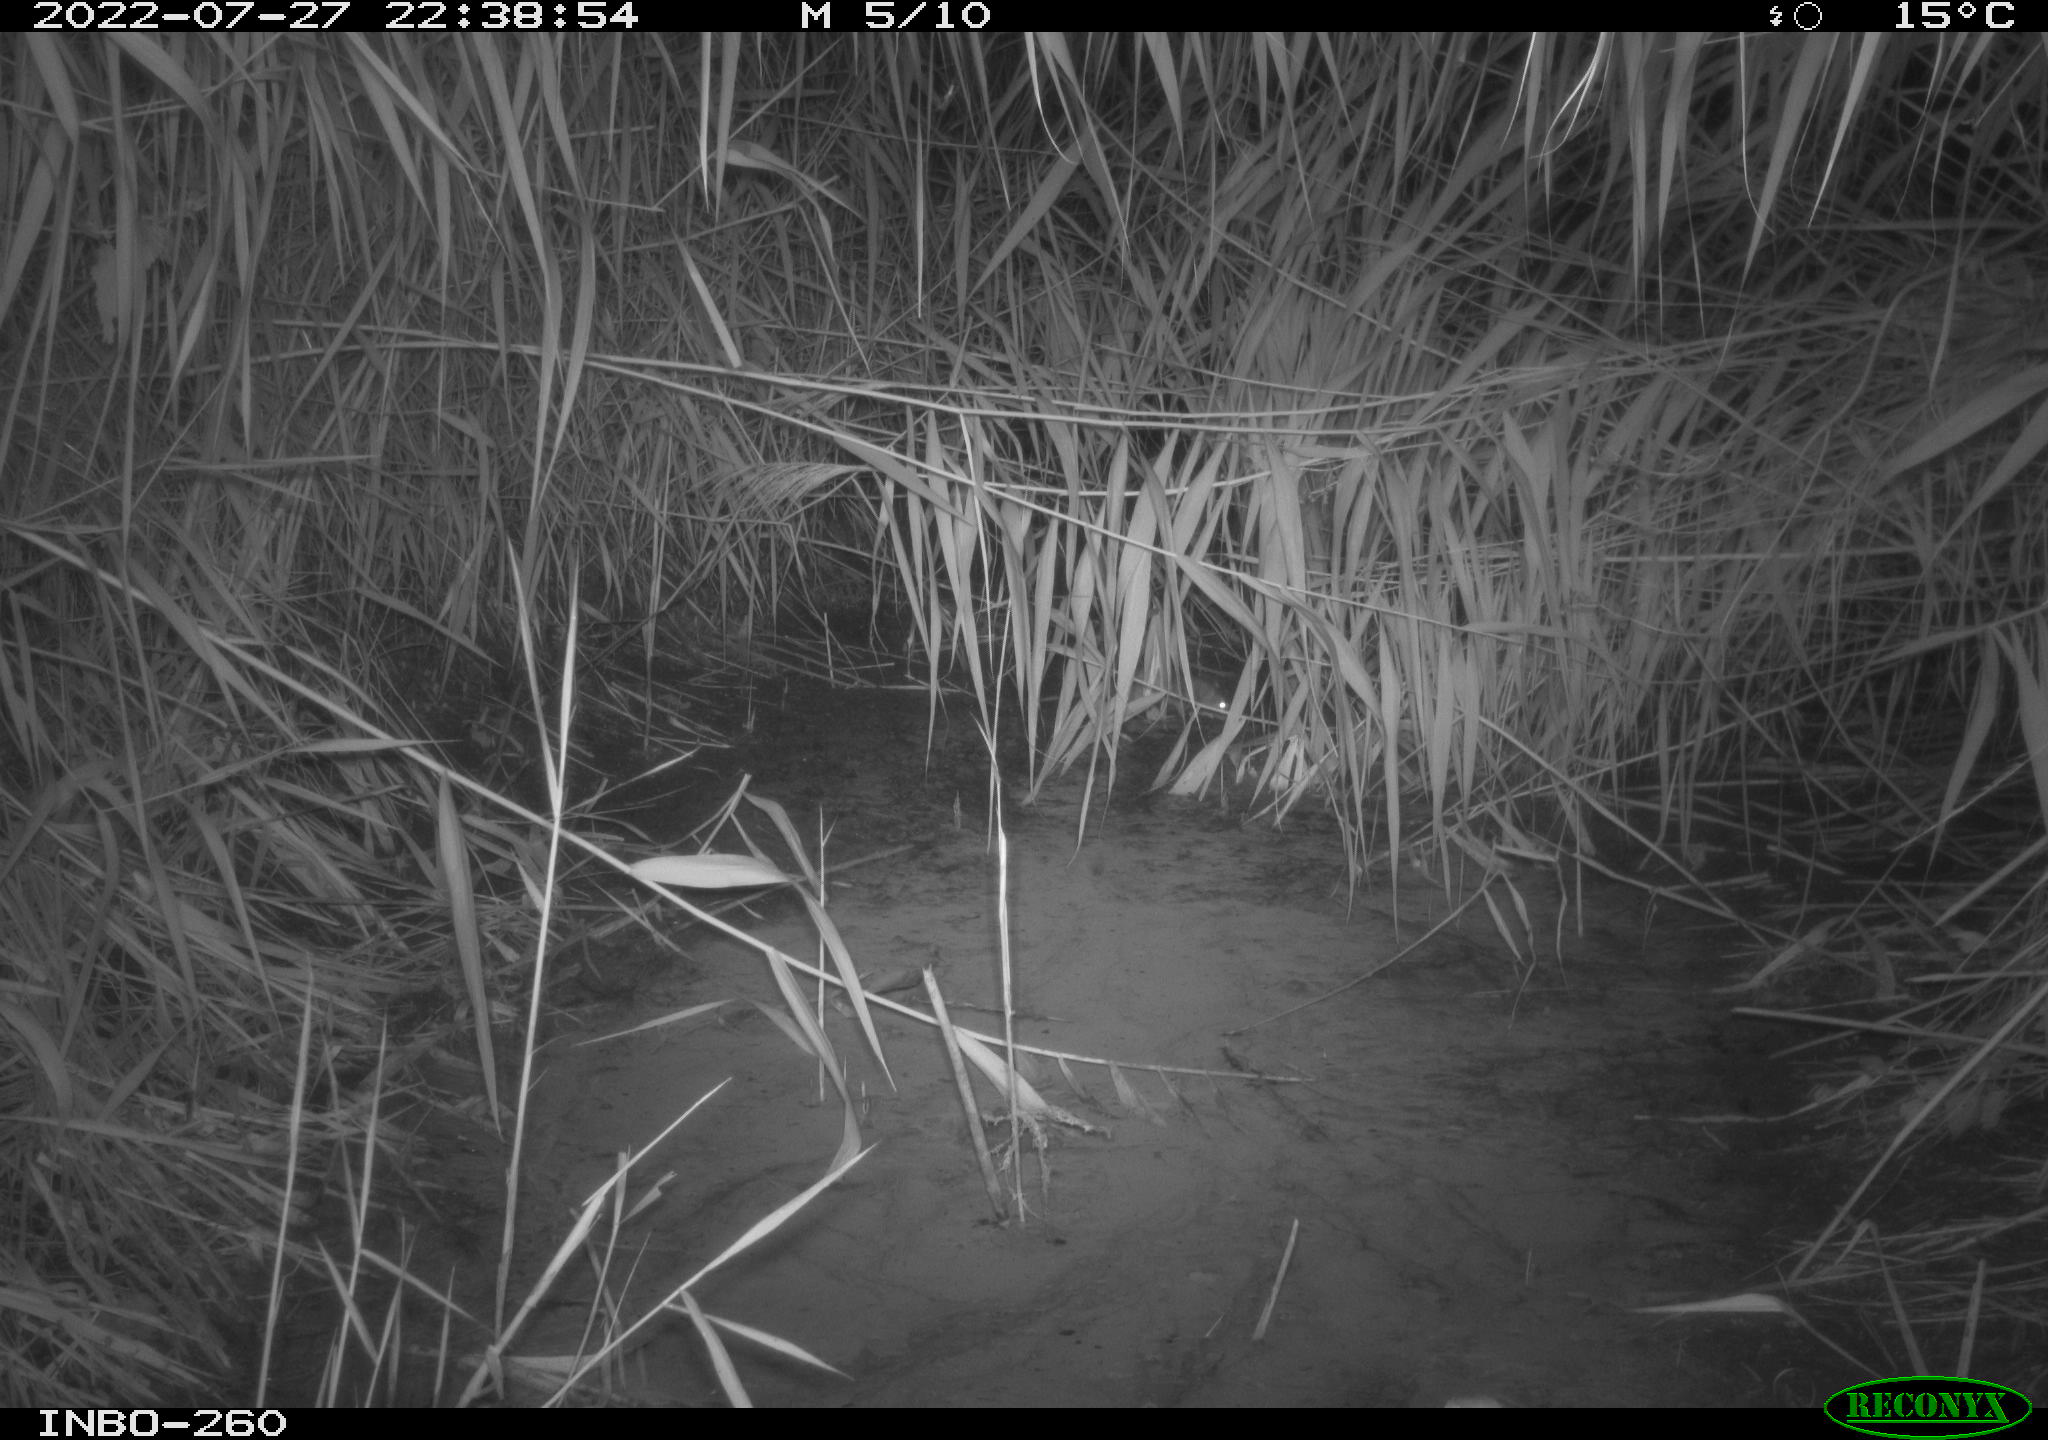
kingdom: Animalia
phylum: Chordata
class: Mammalia
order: Rodentia
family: Muridae
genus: Rattus
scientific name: Rattus norvegicus
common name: Brown rat
